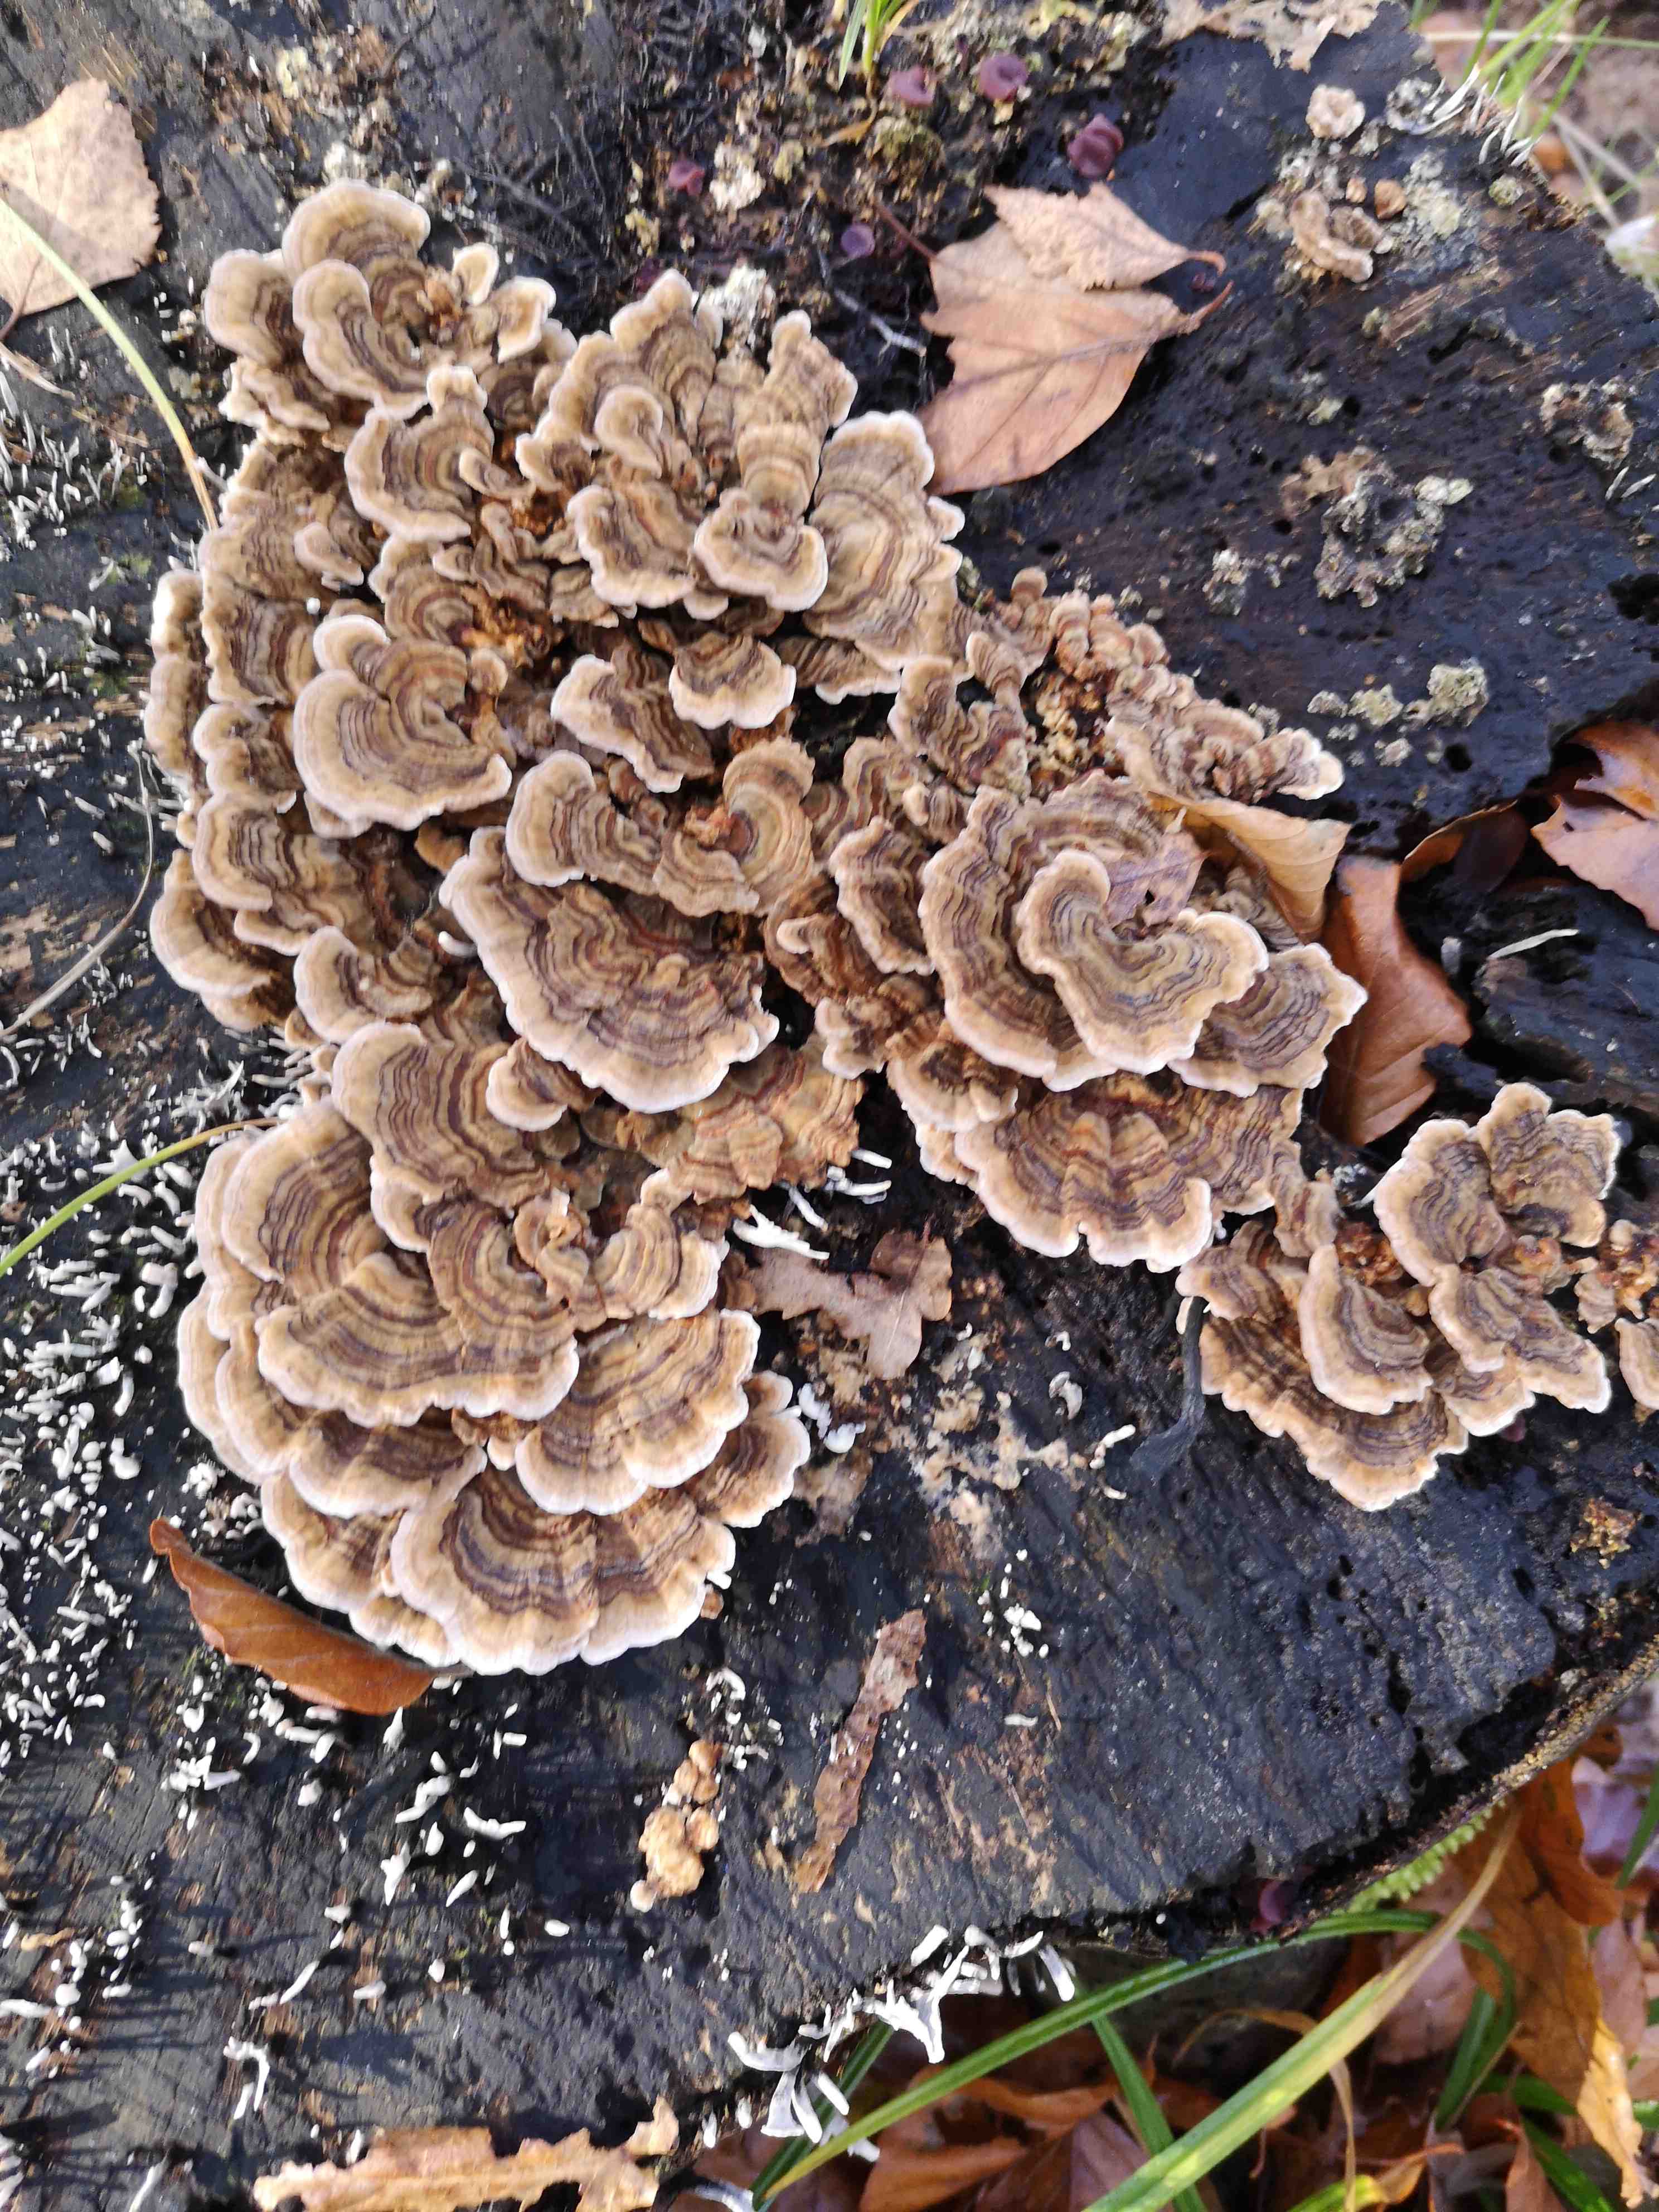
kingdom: Fungi
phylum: Basidiomycota
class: Agaricomycetes
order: Polyporales
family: Polyporaceae
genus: Trametes
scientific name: Trametes versicolor
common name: broget læderporesvamp
